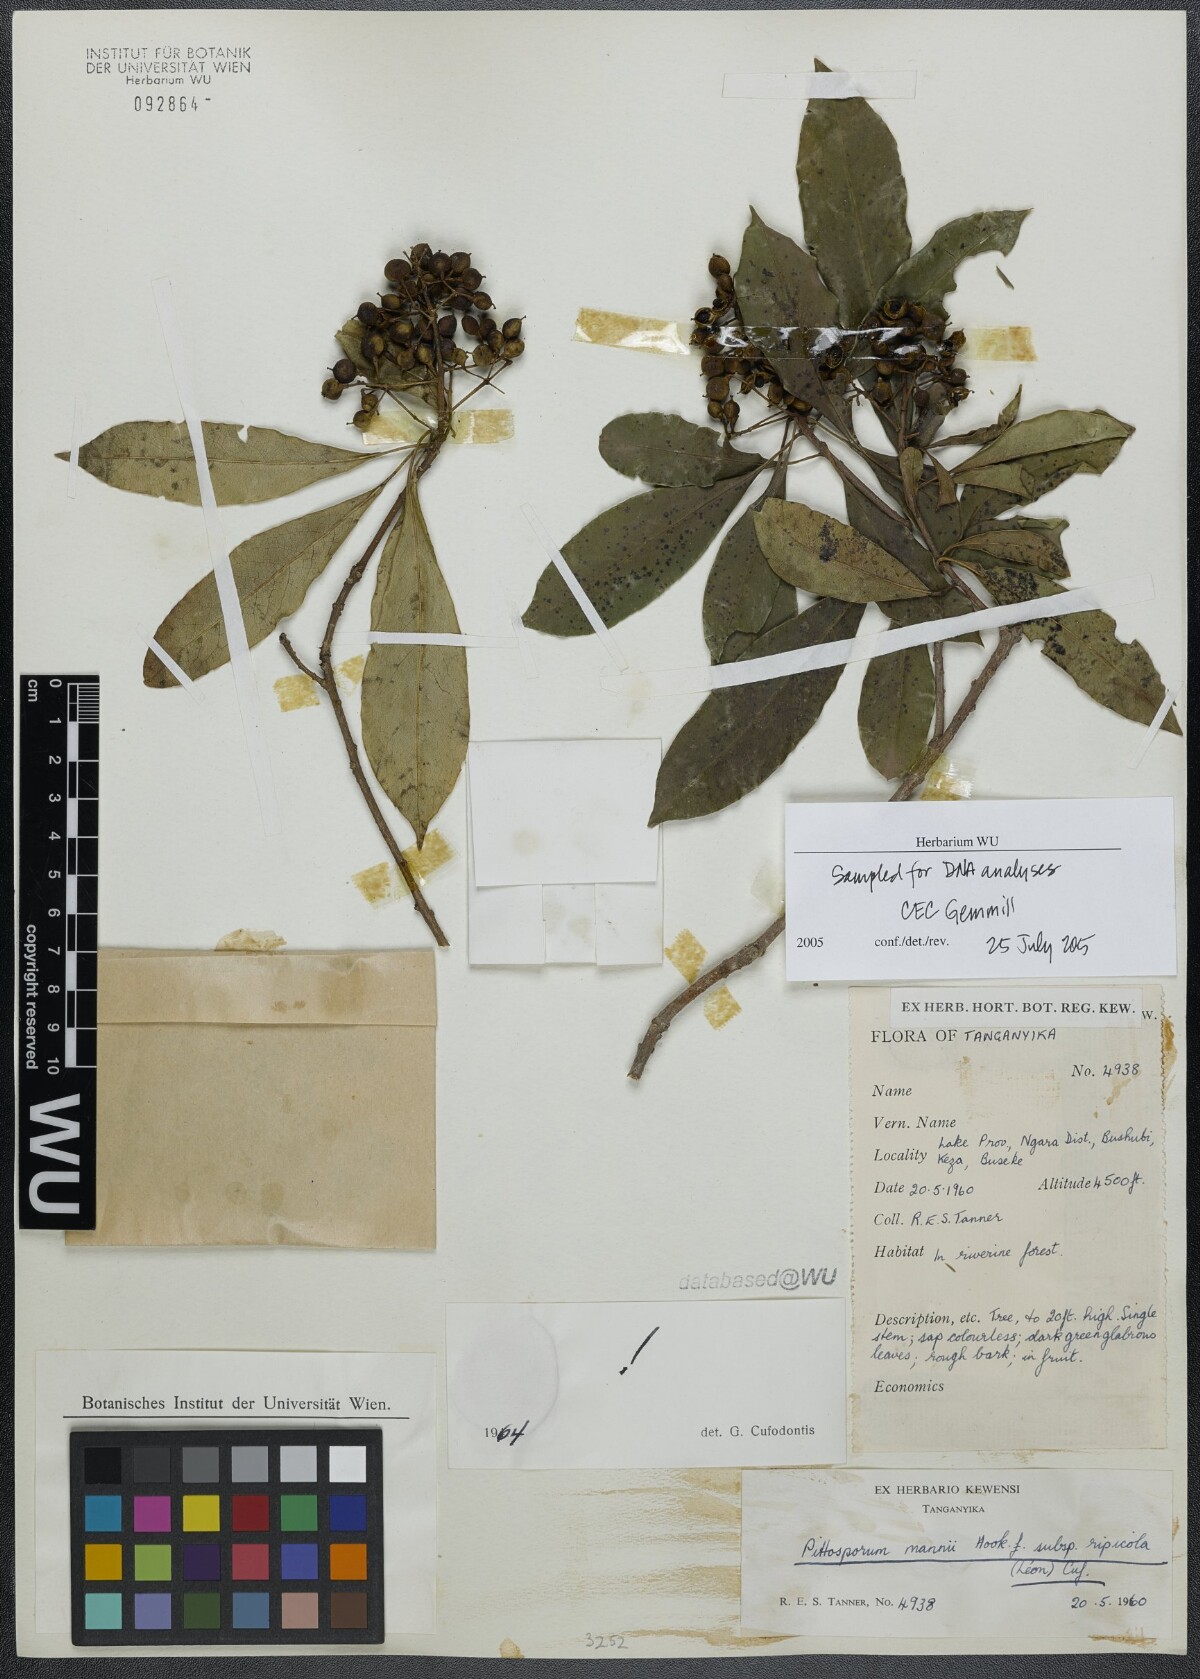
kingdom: Plantae
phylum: Tracheophyta
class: Magnoliopsida
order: Apiales
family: Pittosporaceae
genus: Pittosporum
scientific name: Pittosporum viridiflorum
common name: Cape cheesewood
